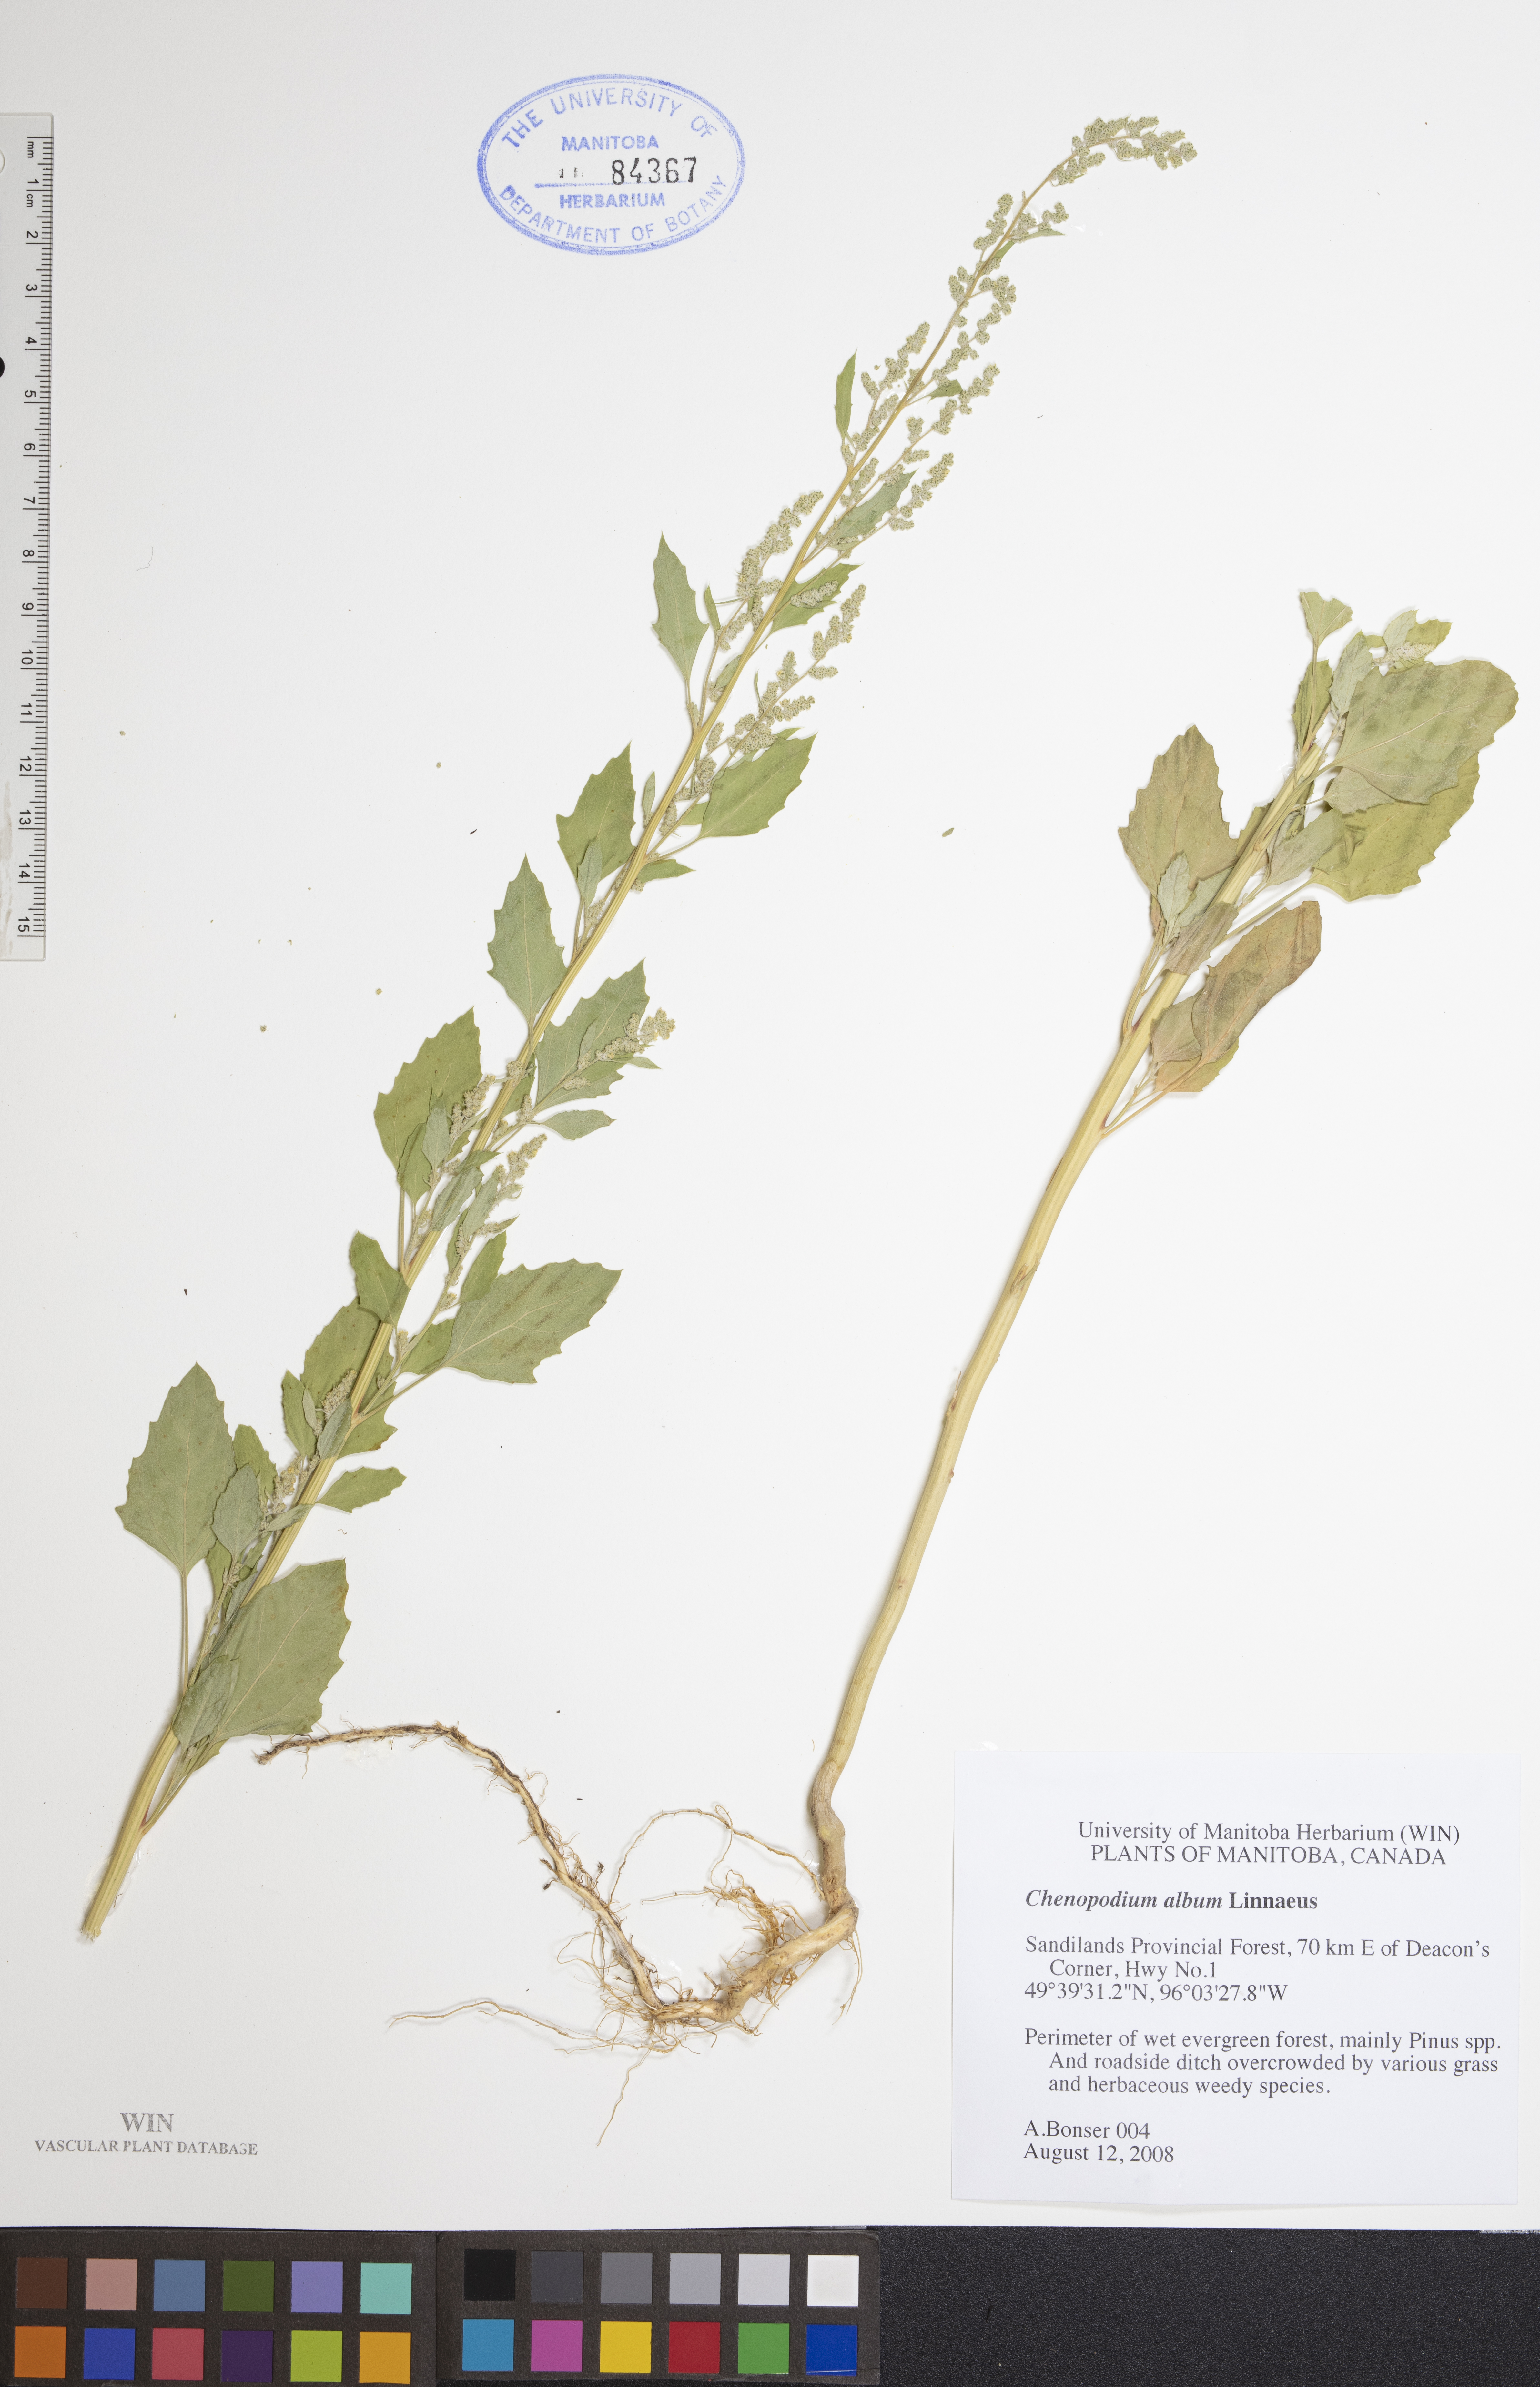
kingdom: Plantae
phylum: Tracheophyta
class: Magnoliopsida
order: Caryophyllales
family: Amaranthaceae
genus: Chenopodium
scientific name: Chenopodium album
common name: Fat-hen
